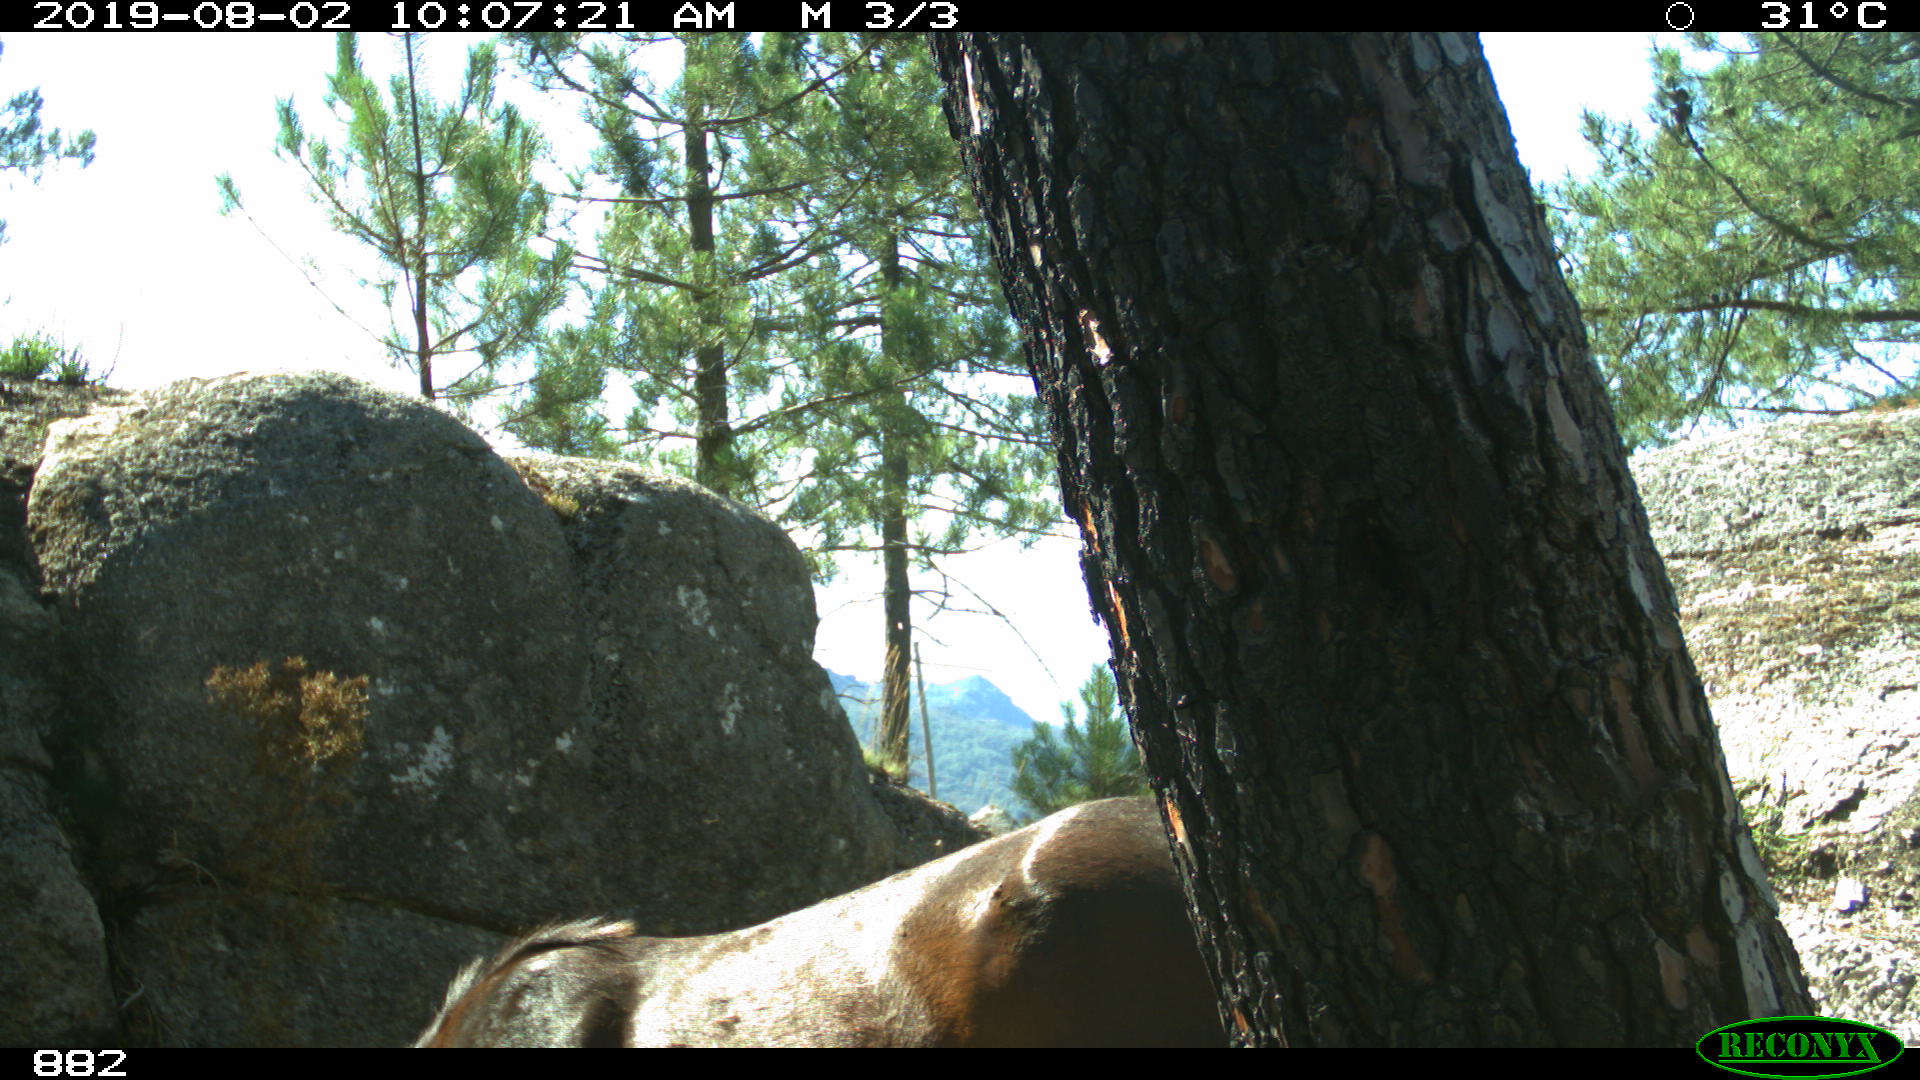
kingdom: Animalia
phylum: Chordata
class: Mammalia
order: Perissodactyla
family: Equidae
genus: Equus
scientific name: Equus caballus
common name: Horse
